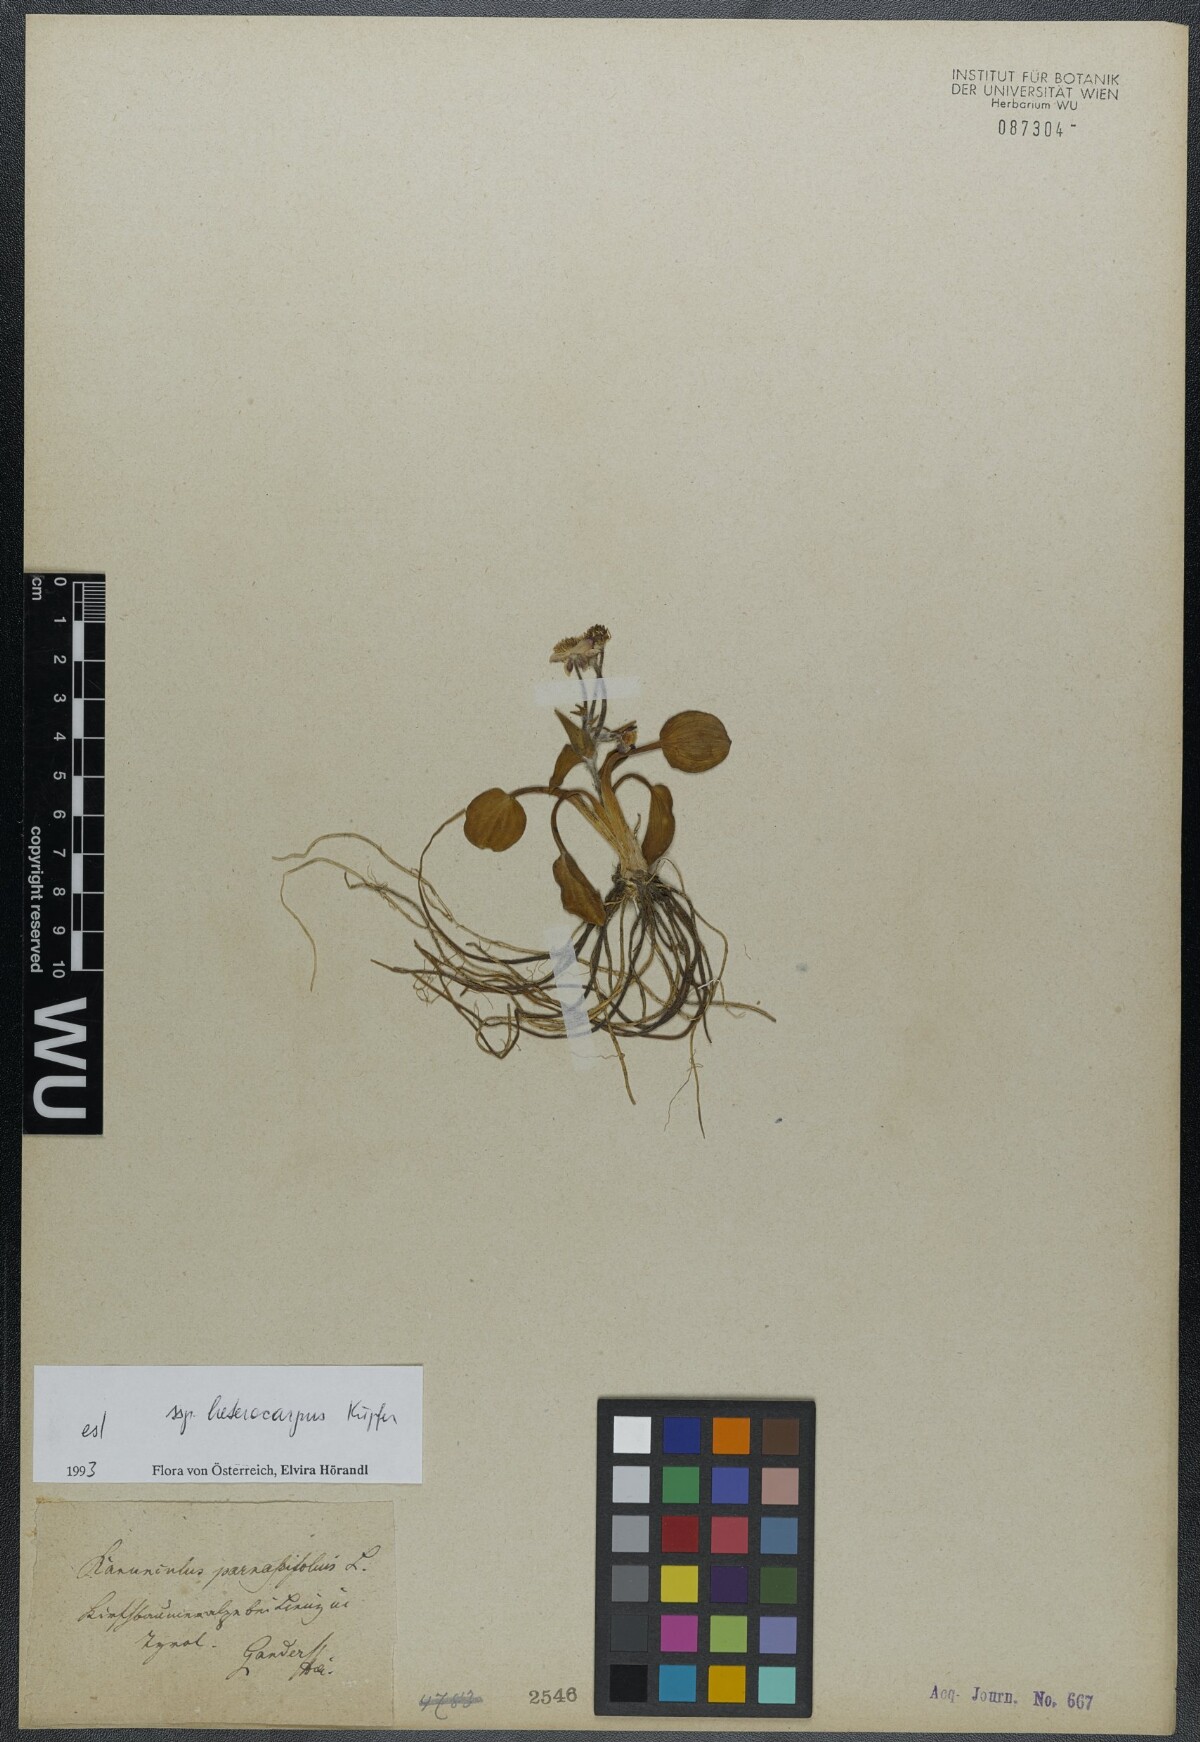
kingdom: Plantae
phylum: Tracheophyta
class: Magnoliopsida
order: Ranunculales
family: Ranunculaceae
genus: Ranunculus
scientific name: Ranunculus parnassiifolius
